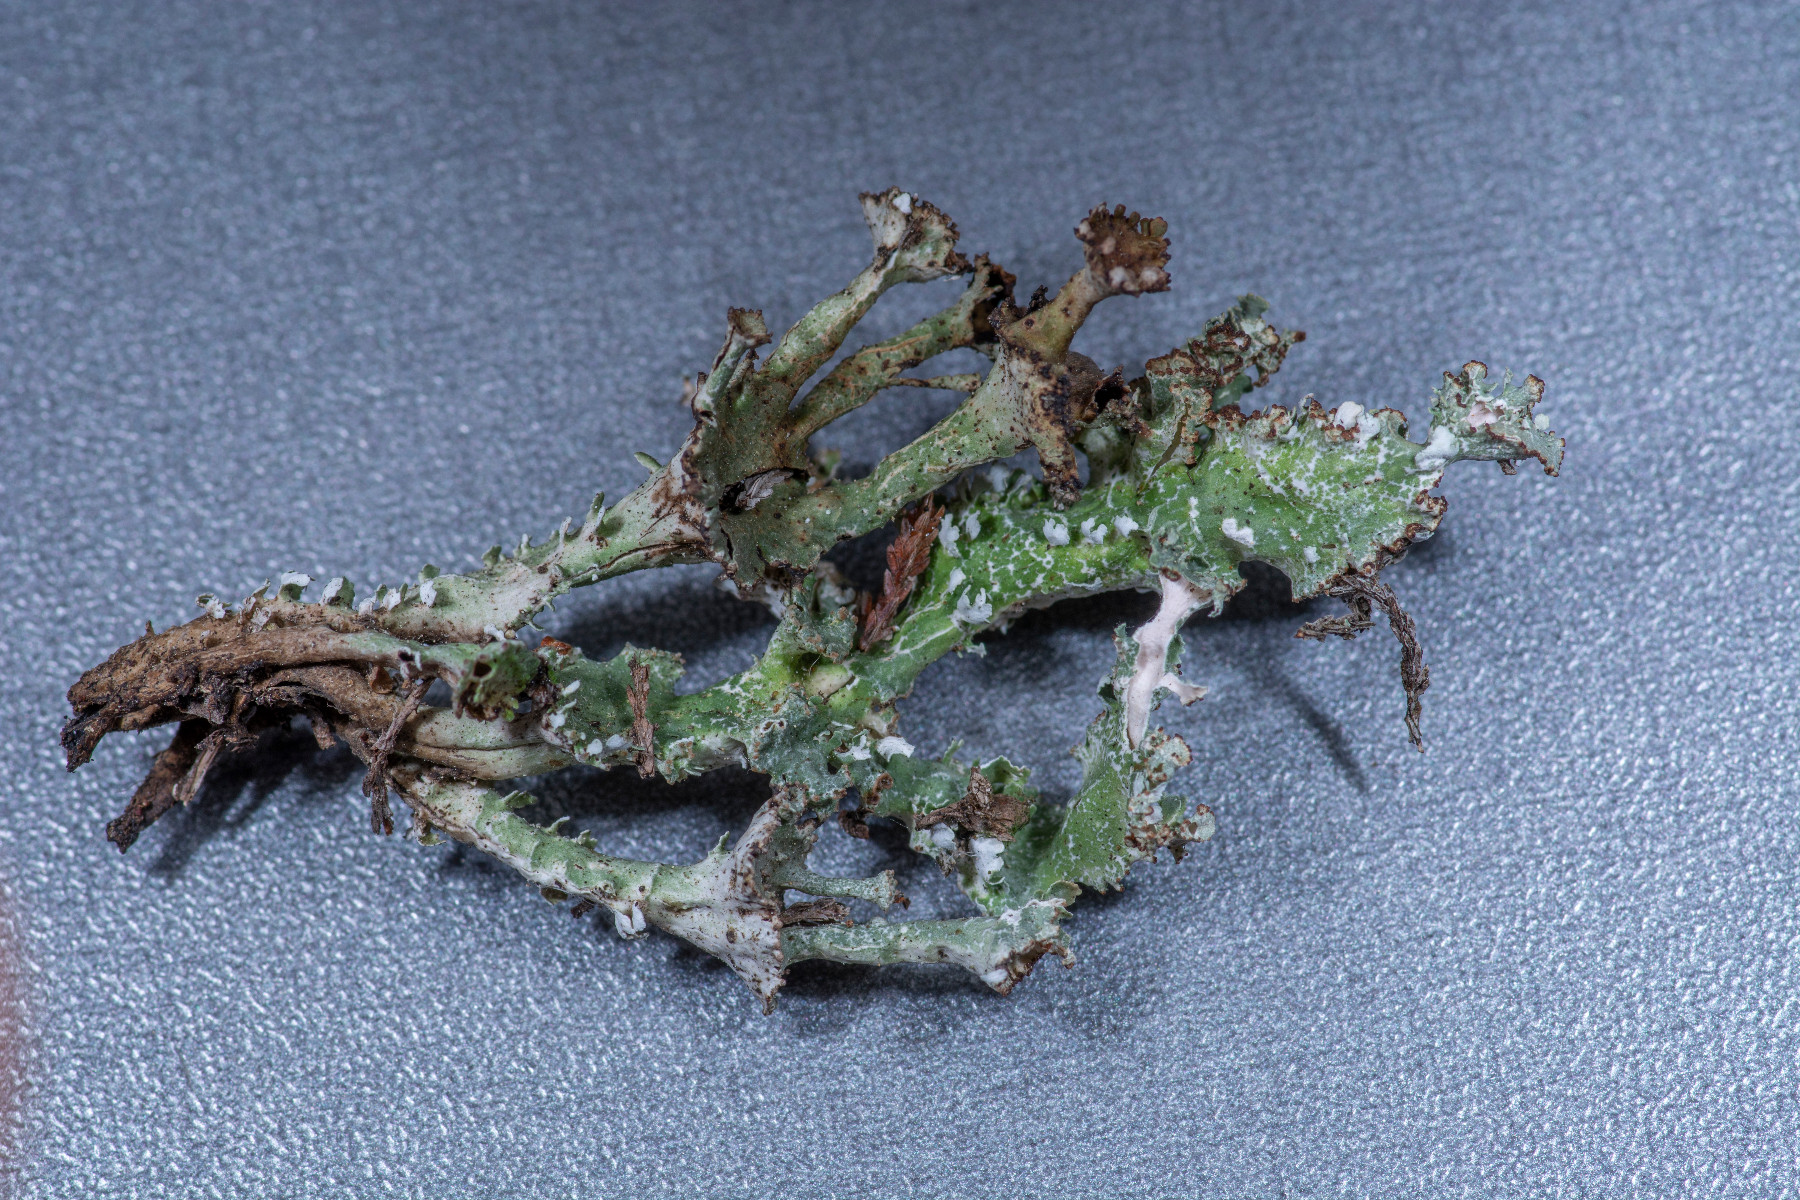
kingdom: Fungi
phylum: Ascomycota
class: Lecanoromycetes
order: Lecanorales
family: Cladoniaceae
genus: Cladonia
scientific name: Cladonia phyllophora
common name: sortfodet bægerlav
